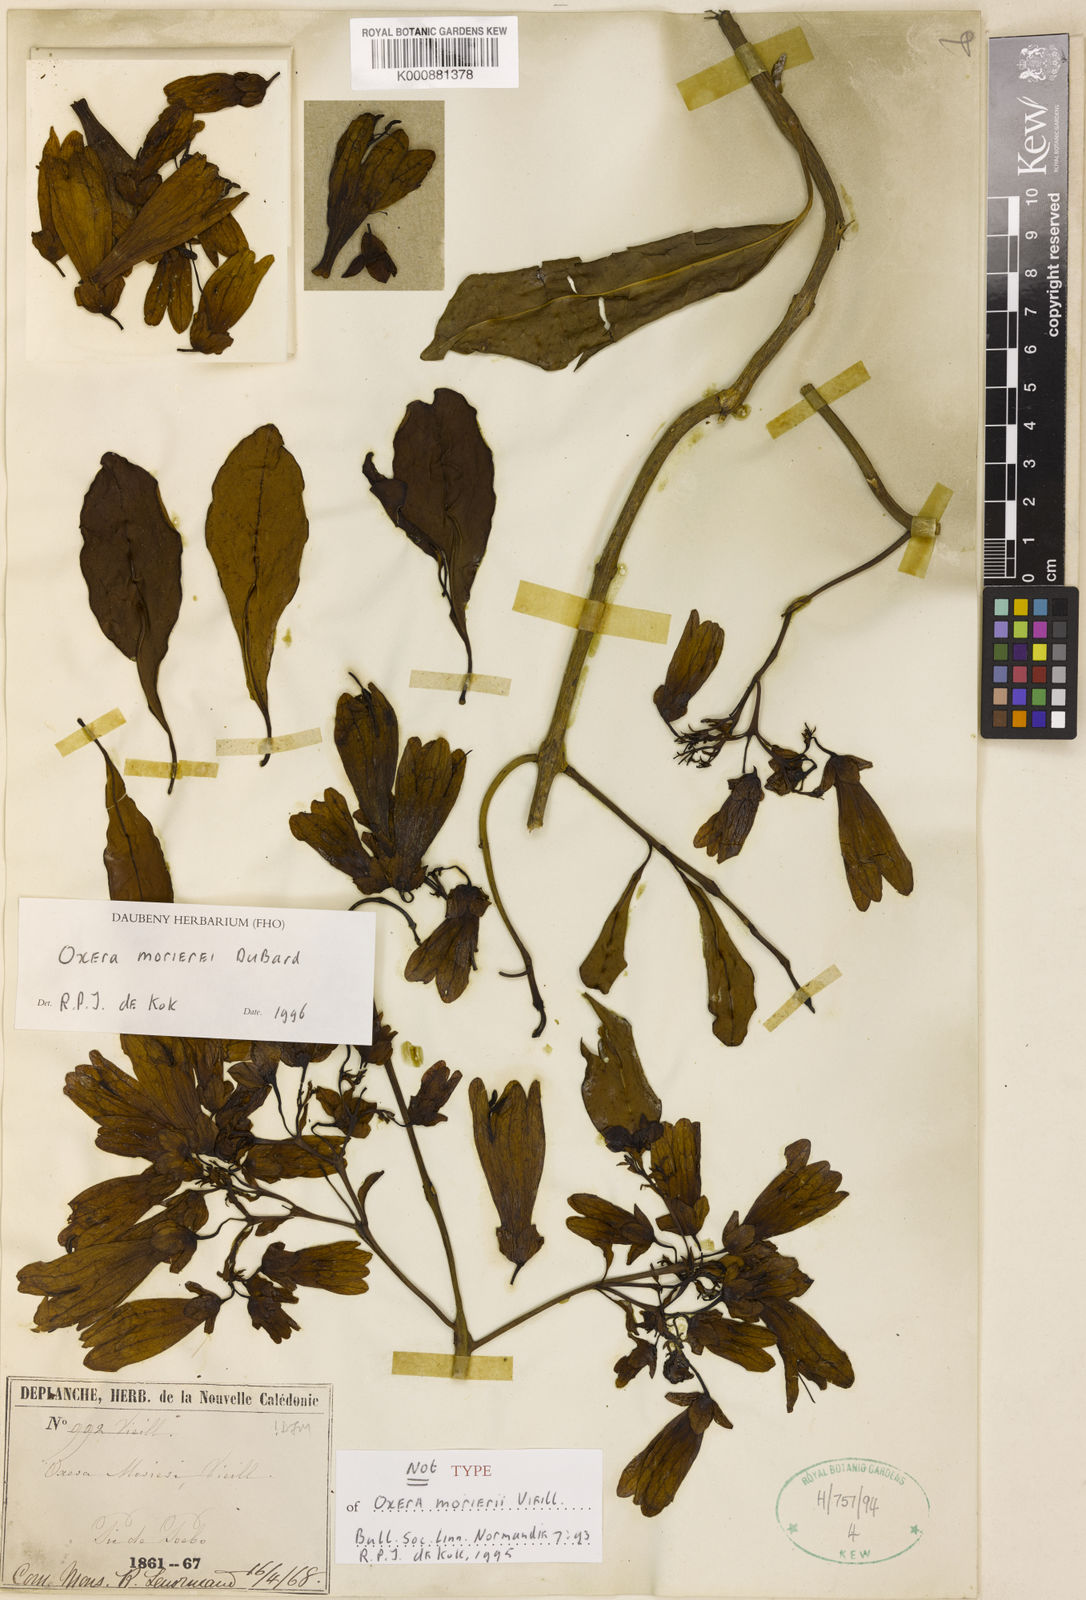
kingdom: Plantae
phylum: Tracheophyta
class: Magnoliopsida
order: Lamiales
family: Lamiaceae
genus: Oxera
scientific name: Oxera morierei
